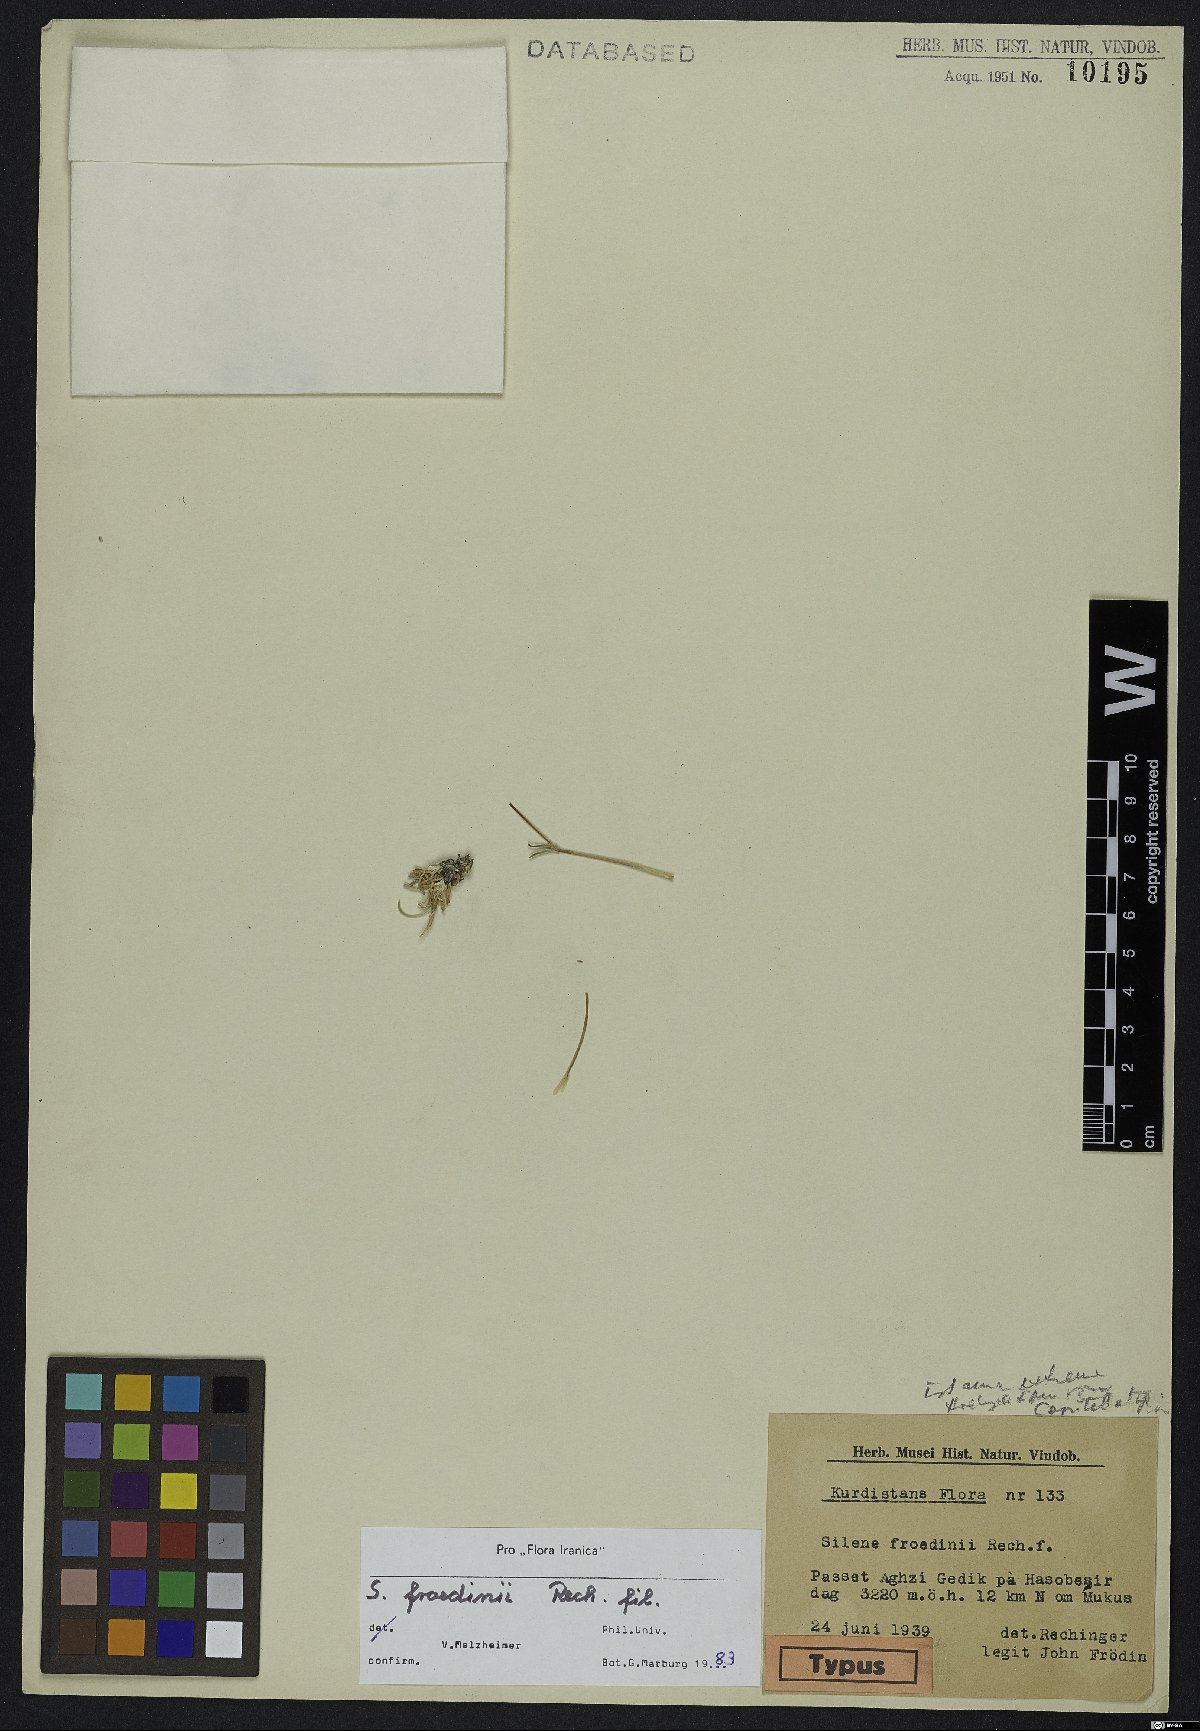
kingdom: Plantae
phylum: Tracheophyta
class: Magnoliopsida
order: Caryophyllales
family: Caryophyllaceae
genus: Silene
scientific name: Silene dianthoides
